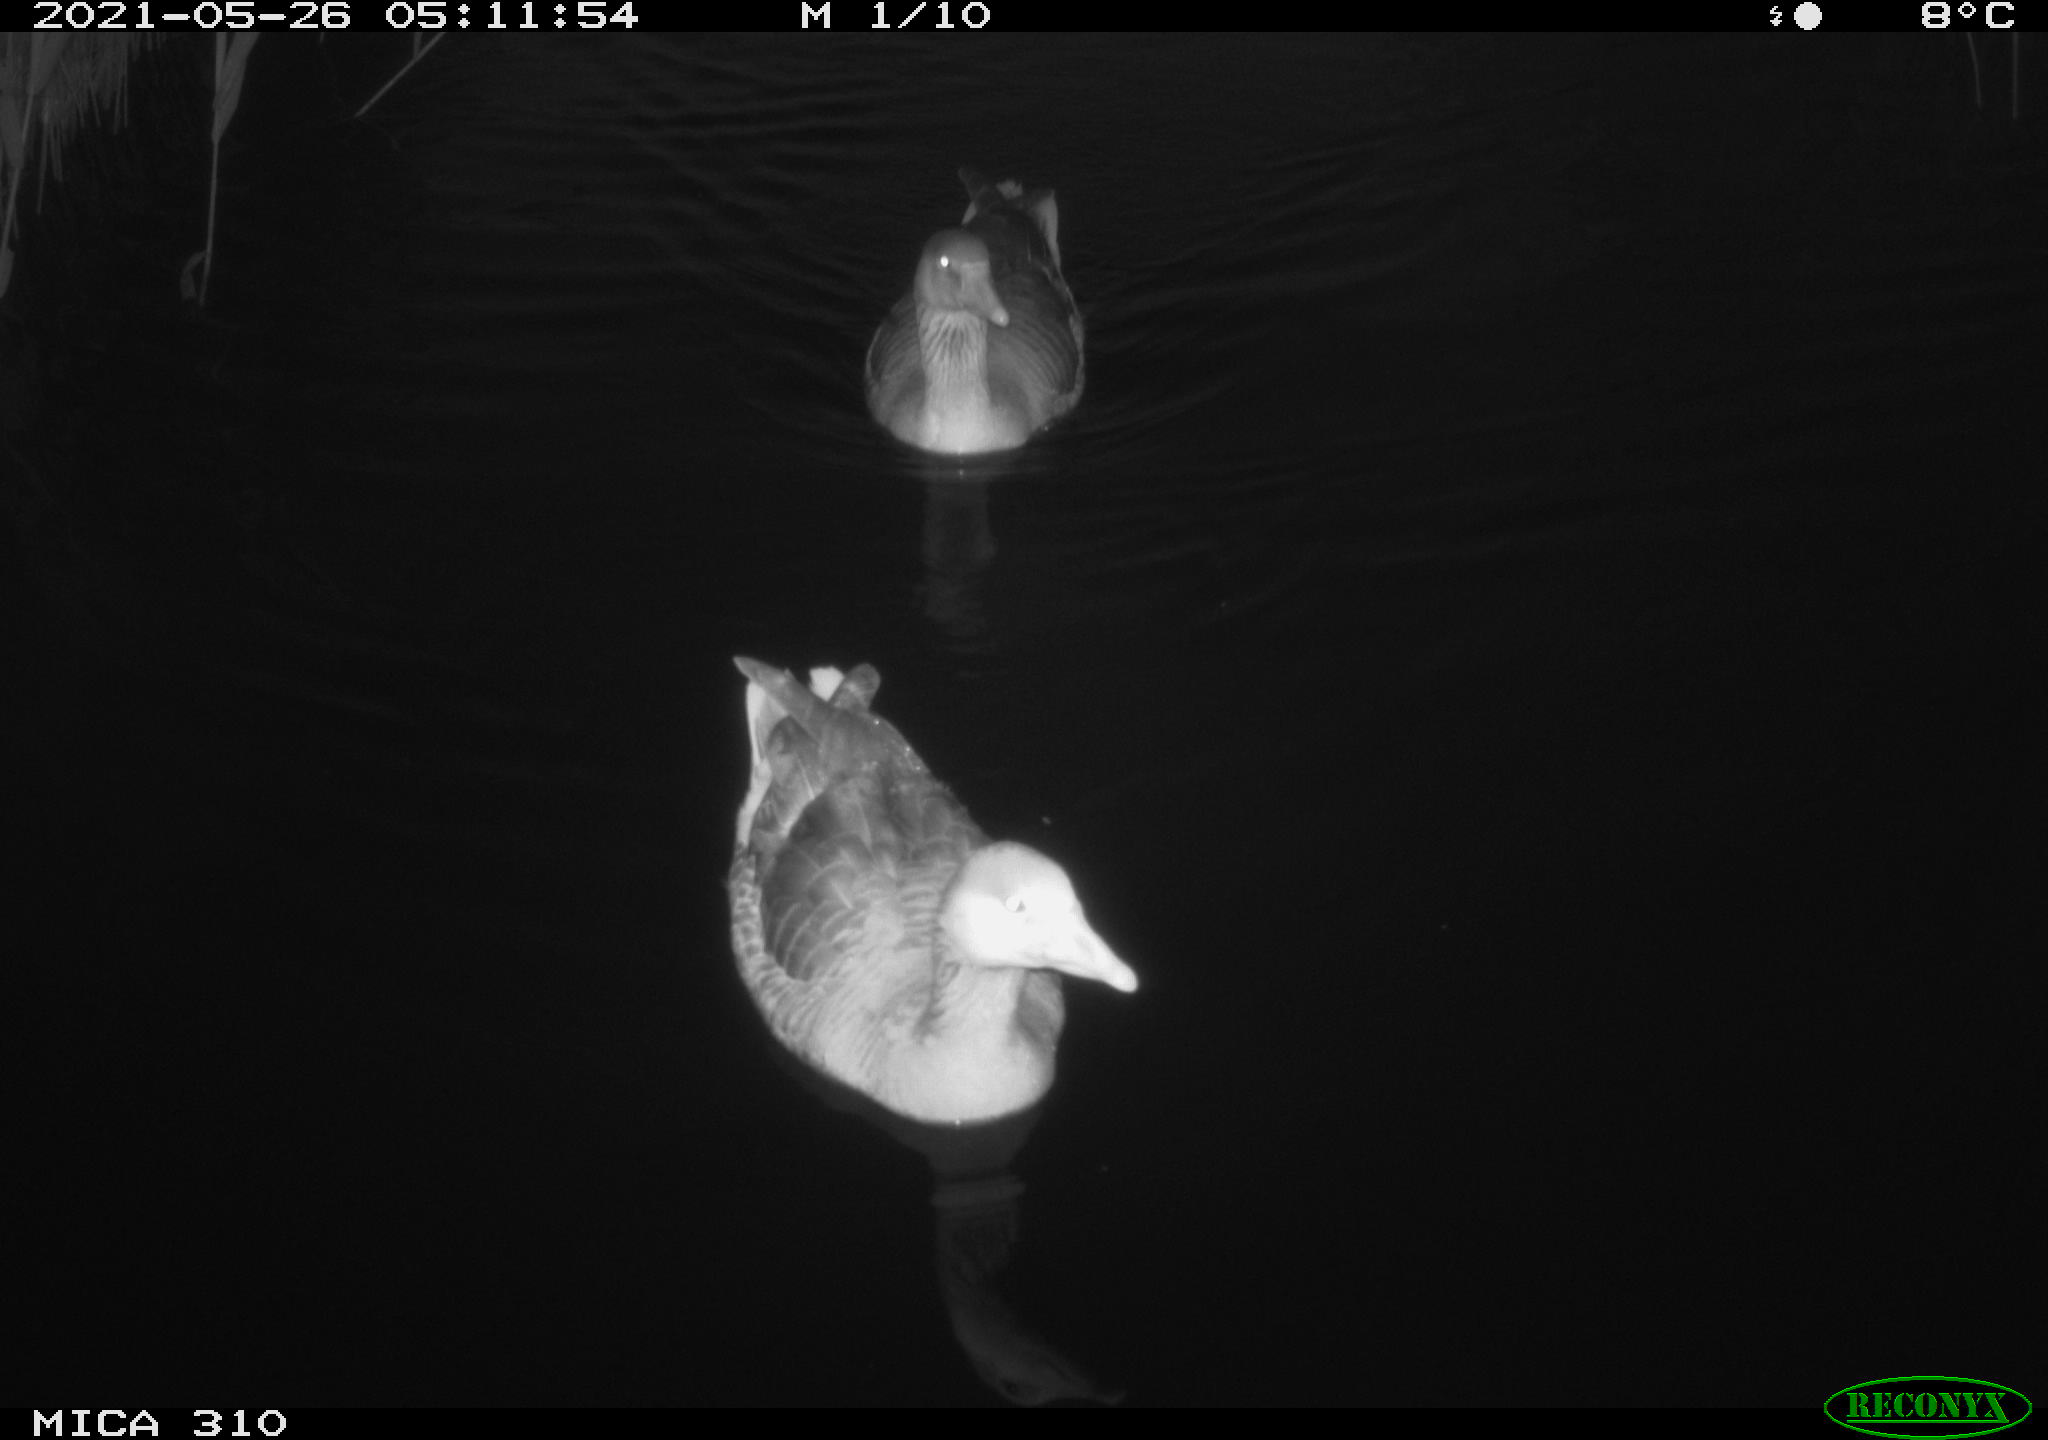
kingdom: Animalia
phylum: Chordata
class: Aves
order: Anseriformes
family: Anatidae
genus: Anas
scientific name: Anas platyrhynchos
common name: Mallard
